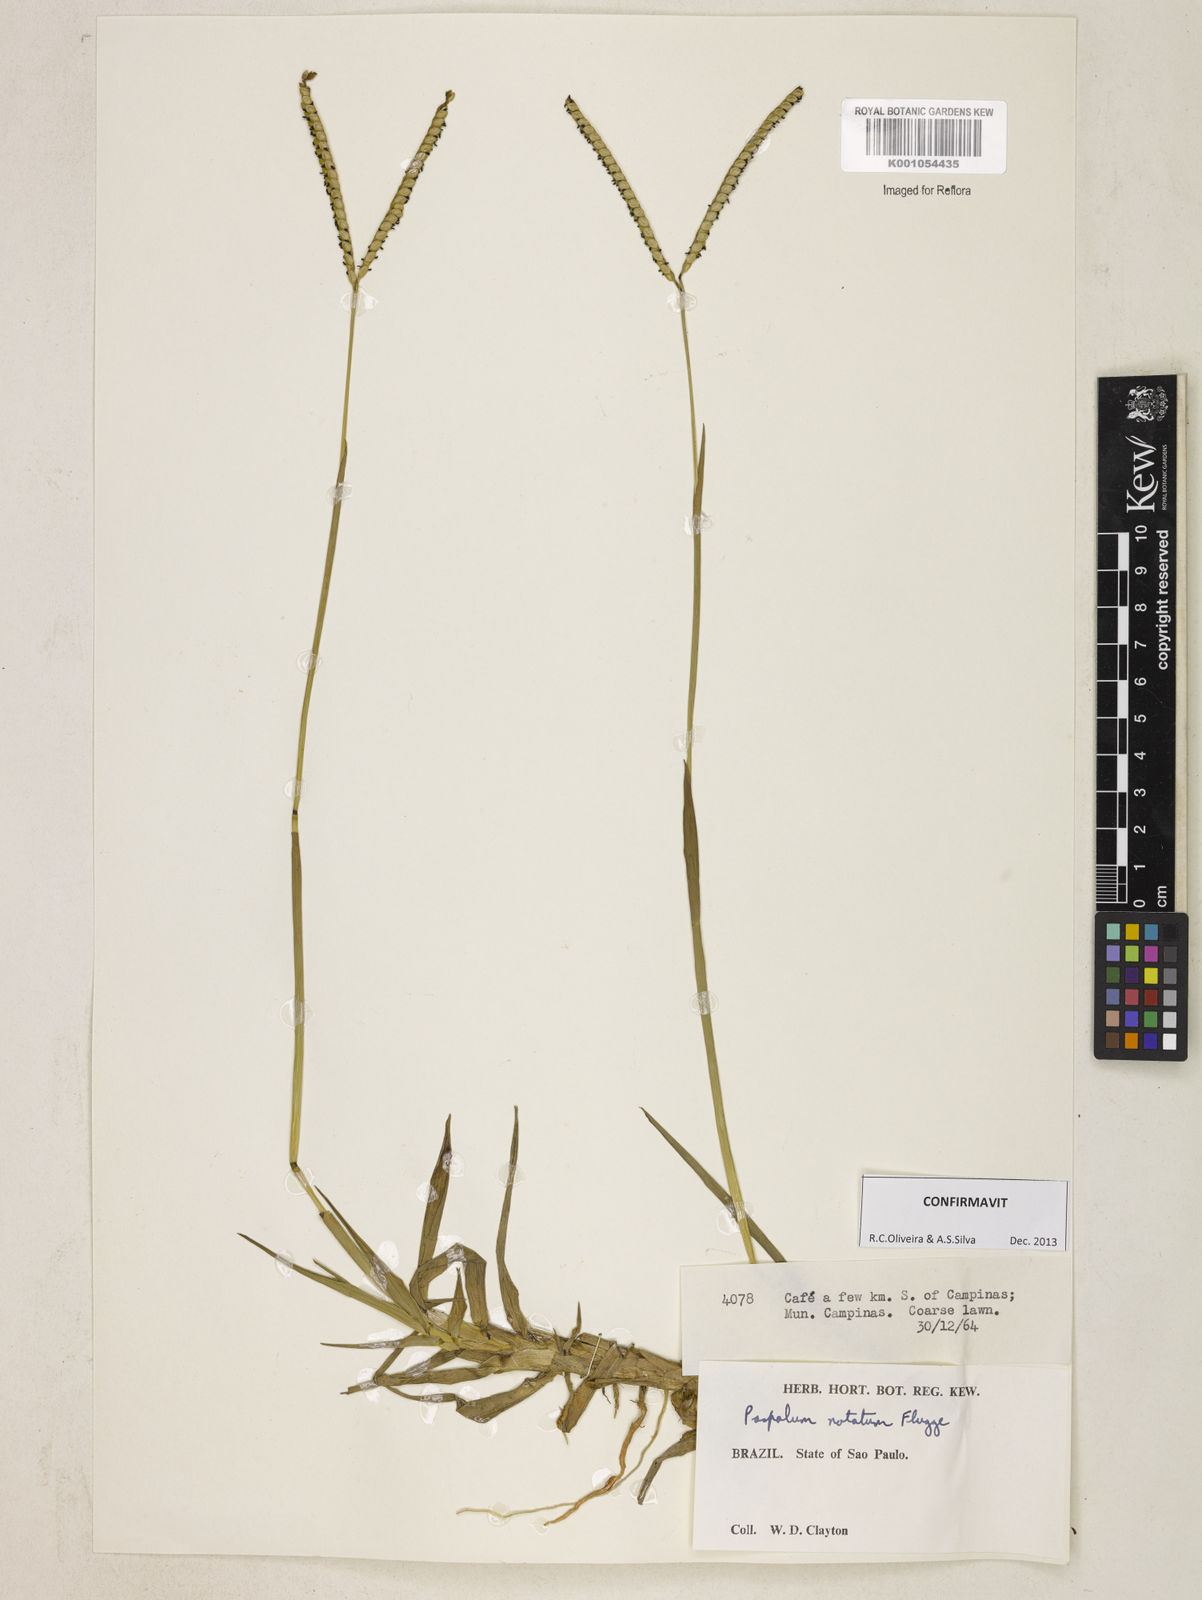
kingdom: Plantae
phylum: Tracheophyta
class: Liliopsida
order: Poales
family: Poaceae
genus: Paspalum
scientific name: Paspalum
